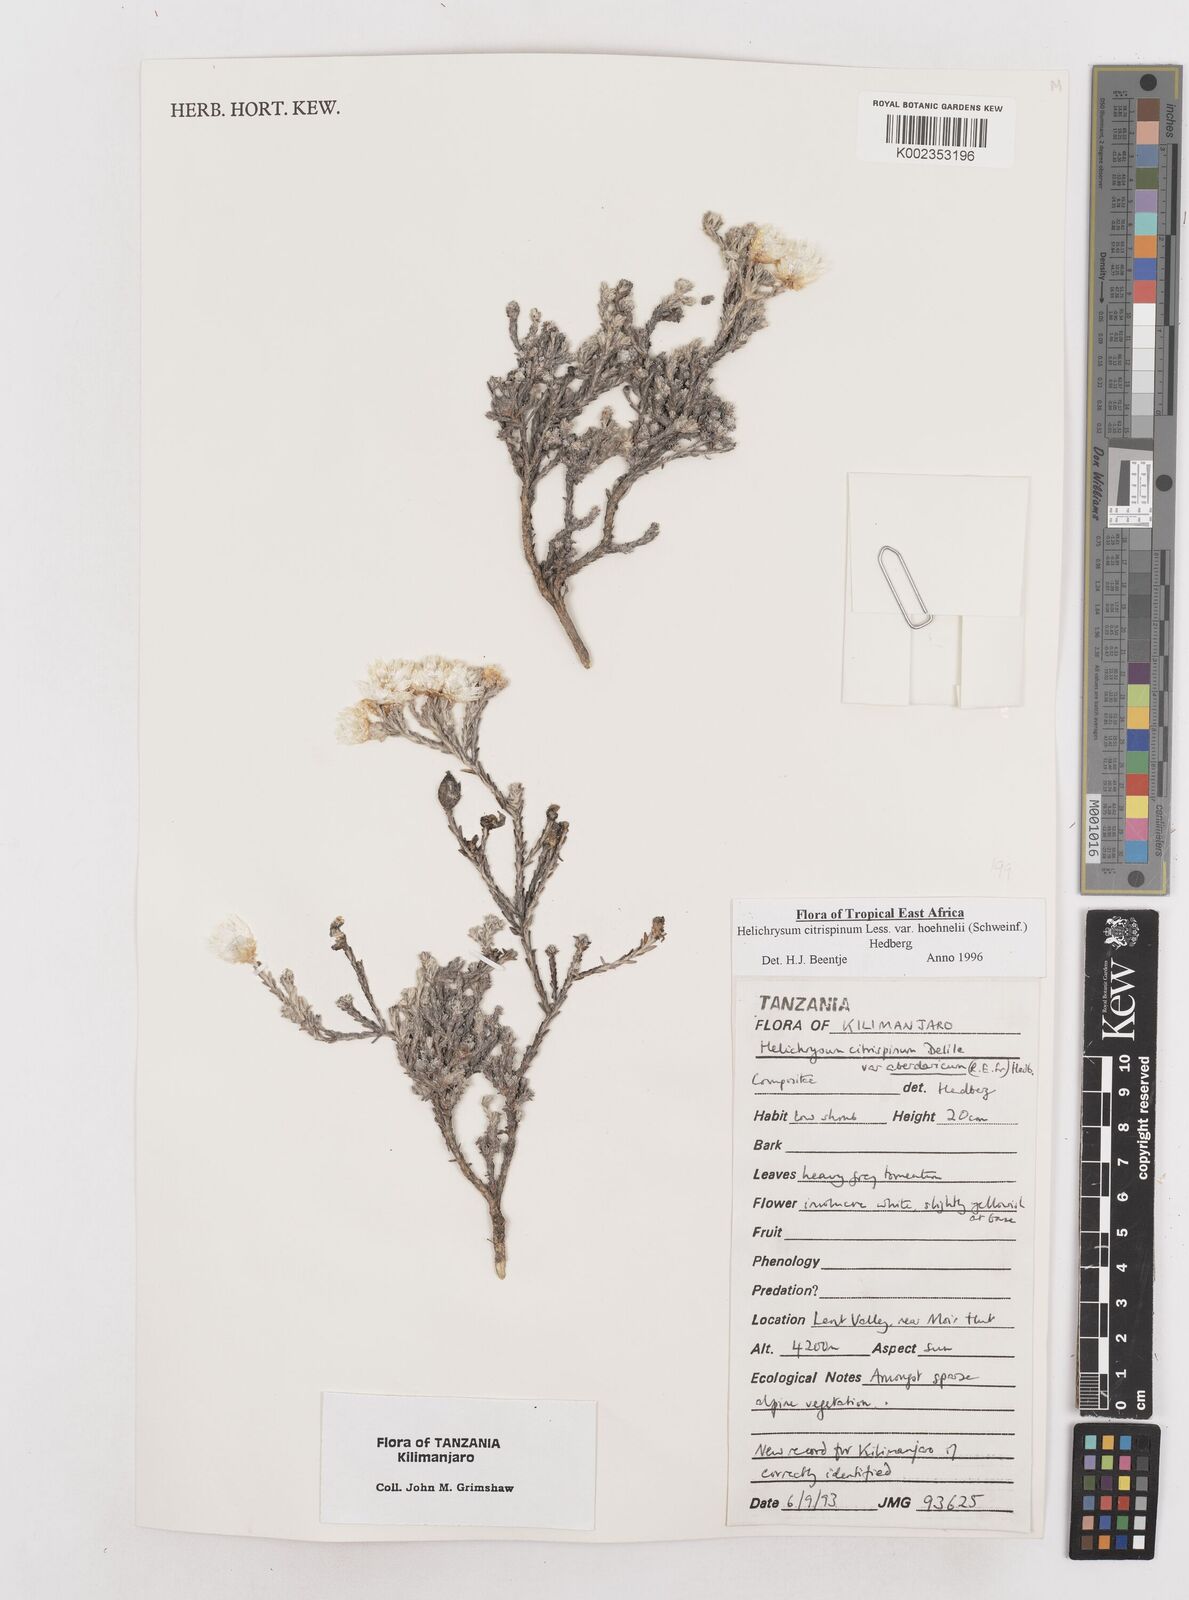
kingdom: Plantae
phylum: Tracheophyta
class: Magnoliopsida
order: Asterales
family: Asteraceae
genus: Helichrysum
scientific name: Helichrysum citrispinum
